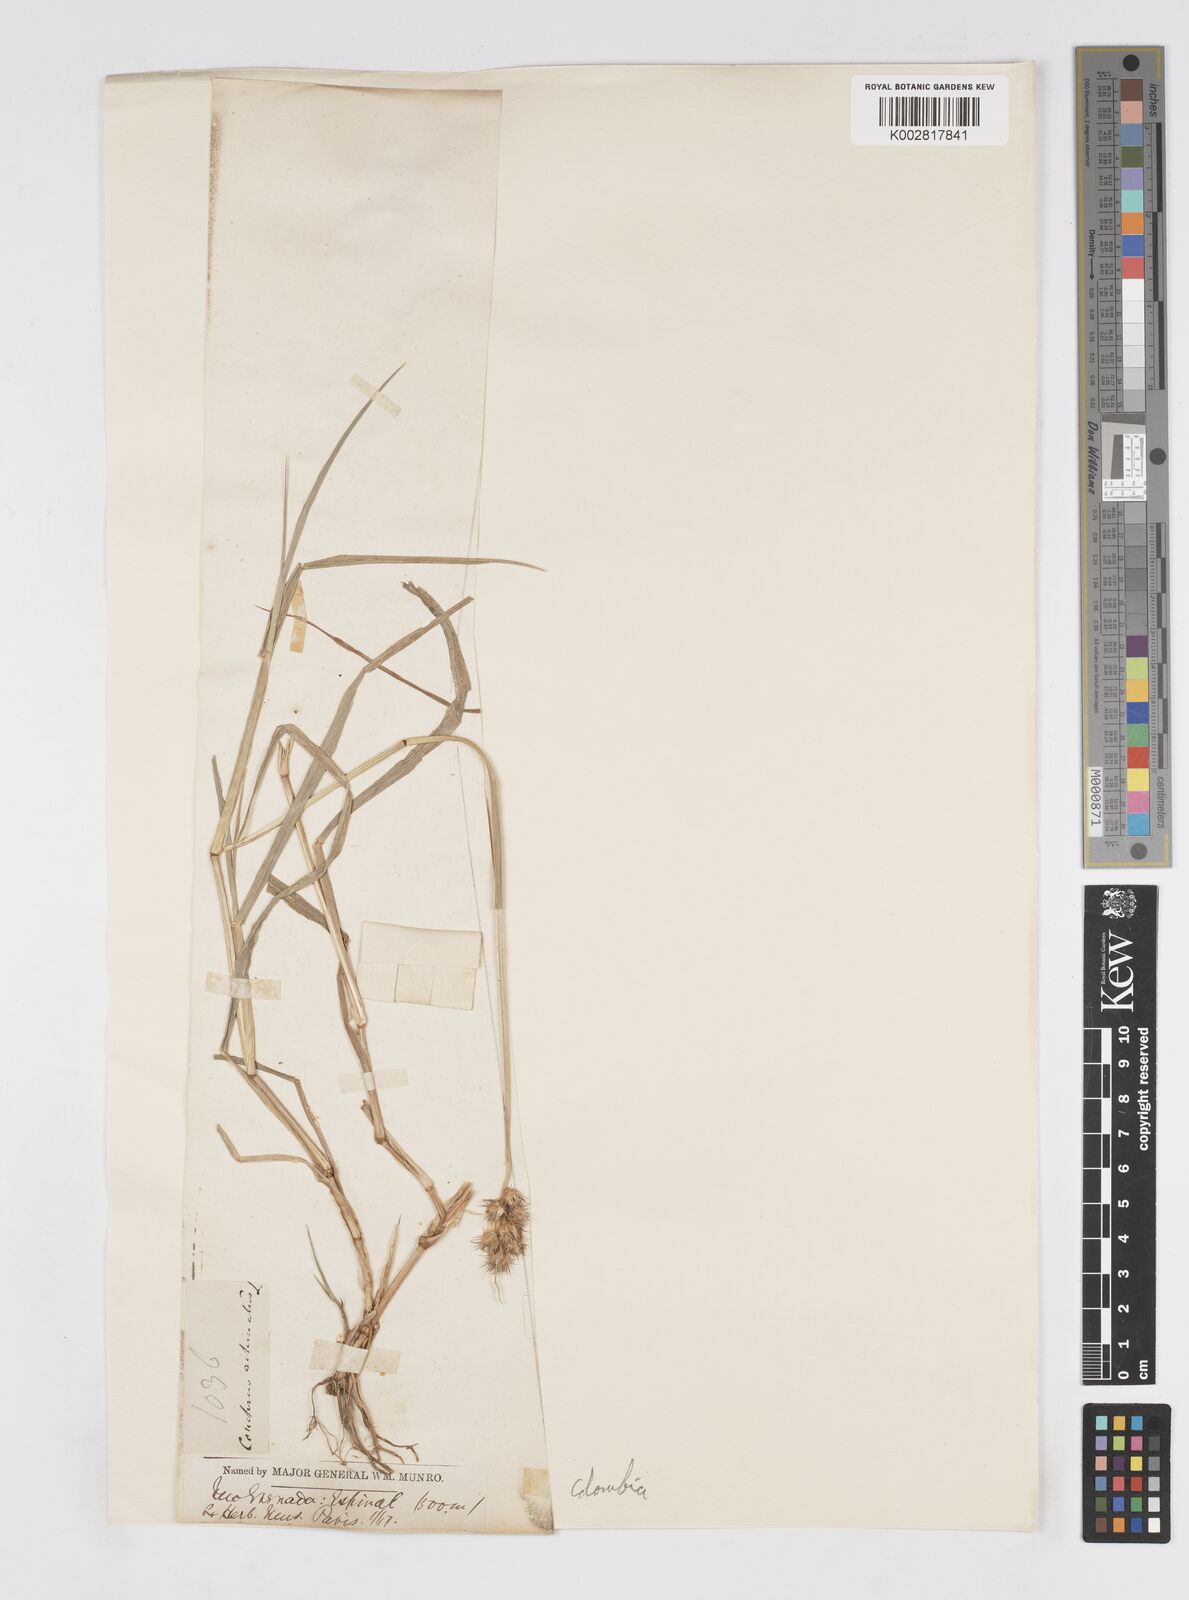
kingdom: Plantae
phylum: Tracheophyta
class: Liliopsida
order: Poales
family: Poaceae
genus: Cenchrus
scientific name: Cenchrus
